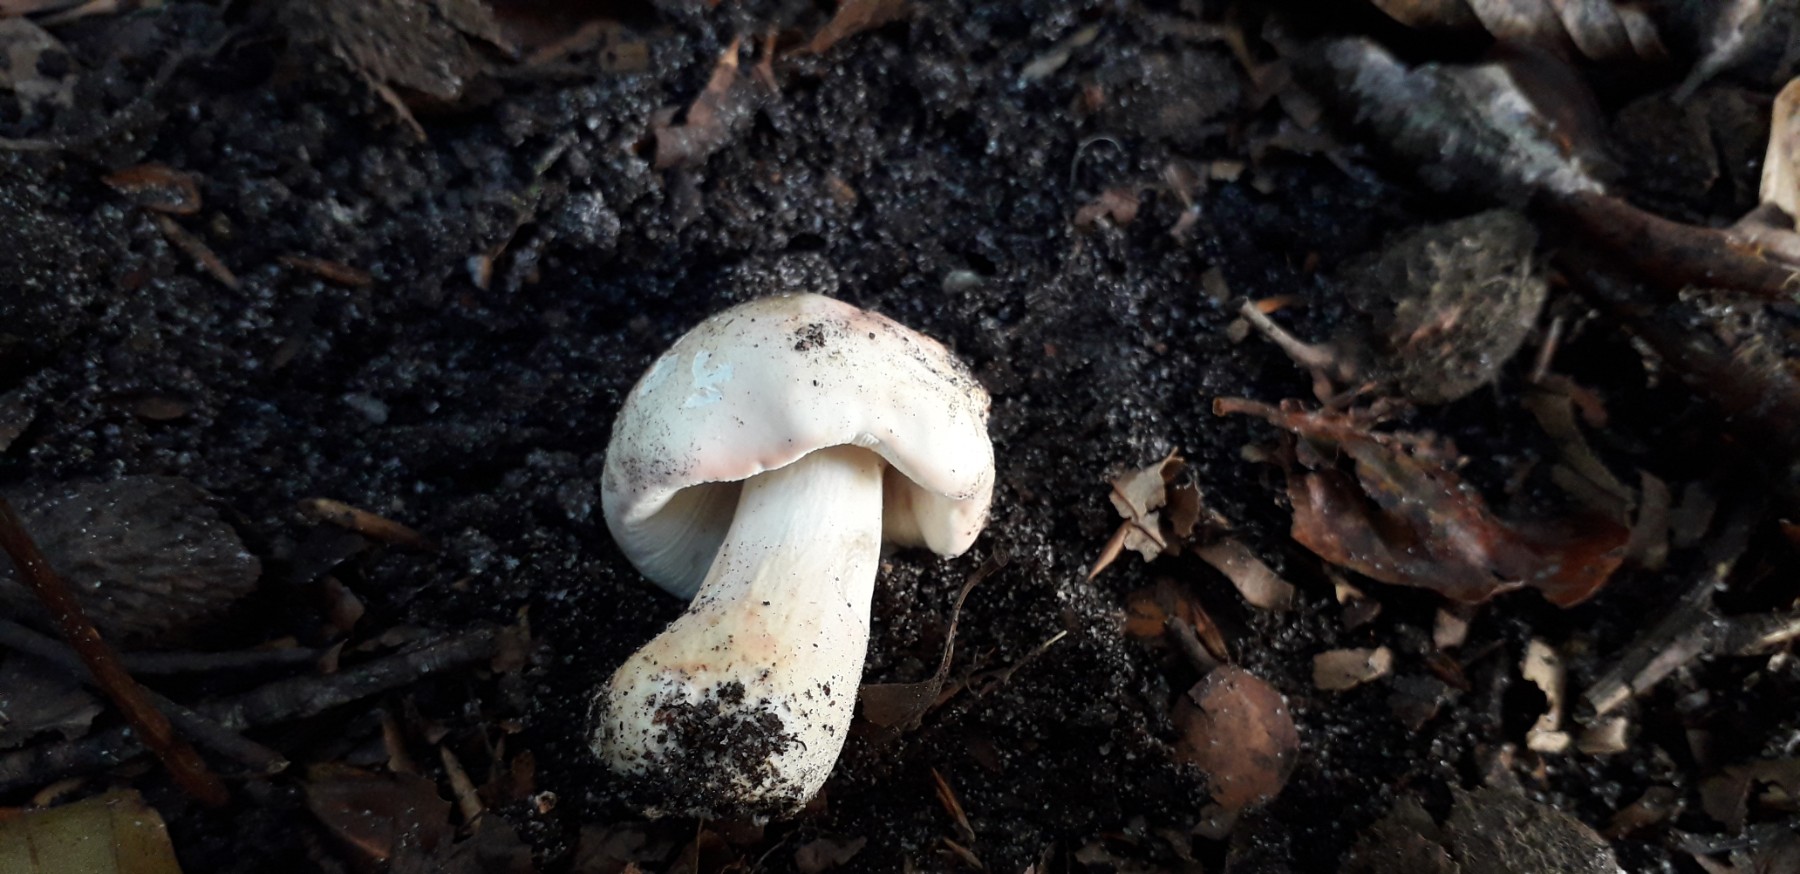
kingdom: Fungi
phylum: Basidiomycota
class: Agaricomycetes
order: Russulales
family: Russulaceae
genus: Russula
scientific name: Russula
